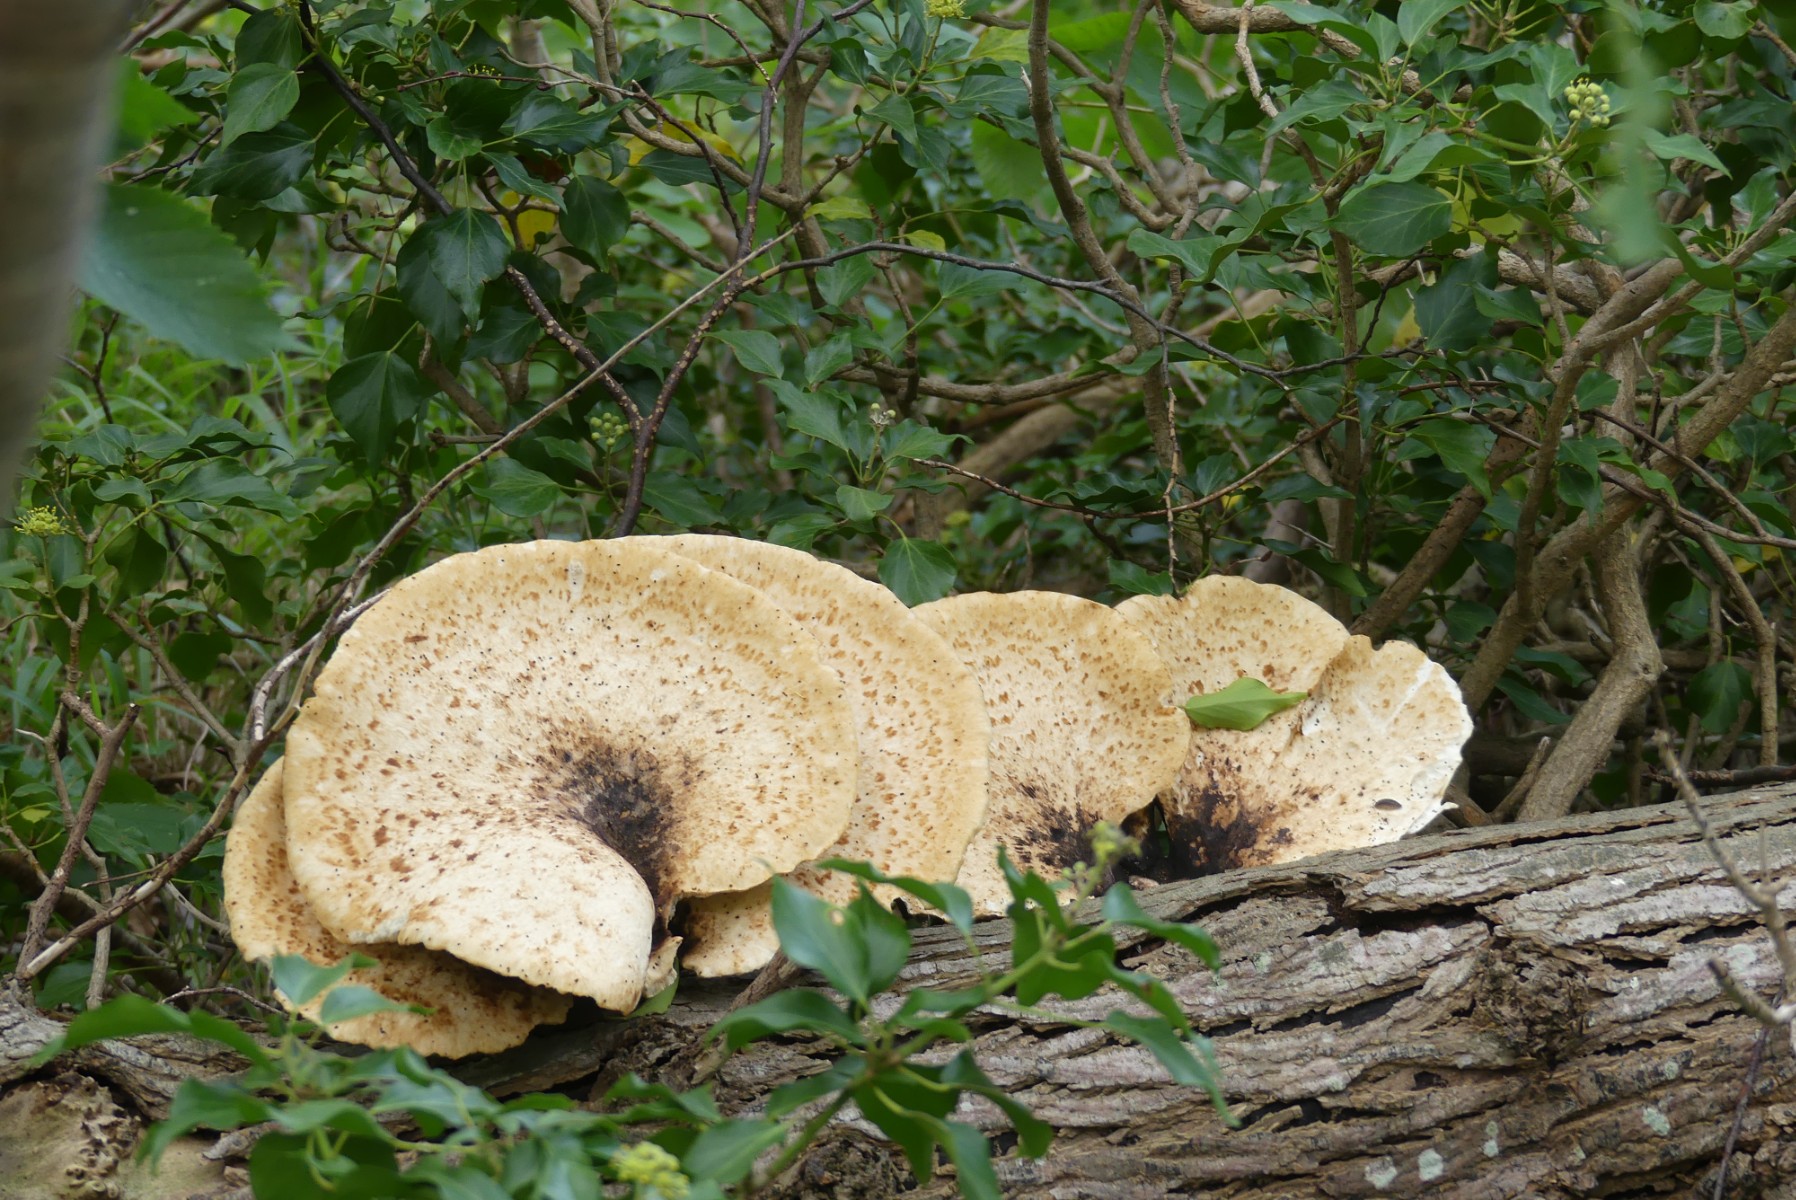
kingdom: Fungi
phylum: Basidiomycota
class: Agaricomycetes
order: Polyporales
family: Polyporaceae
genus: Cerioporus
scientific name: Cerioporus squamosus
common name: skællet stilkporesvamp
